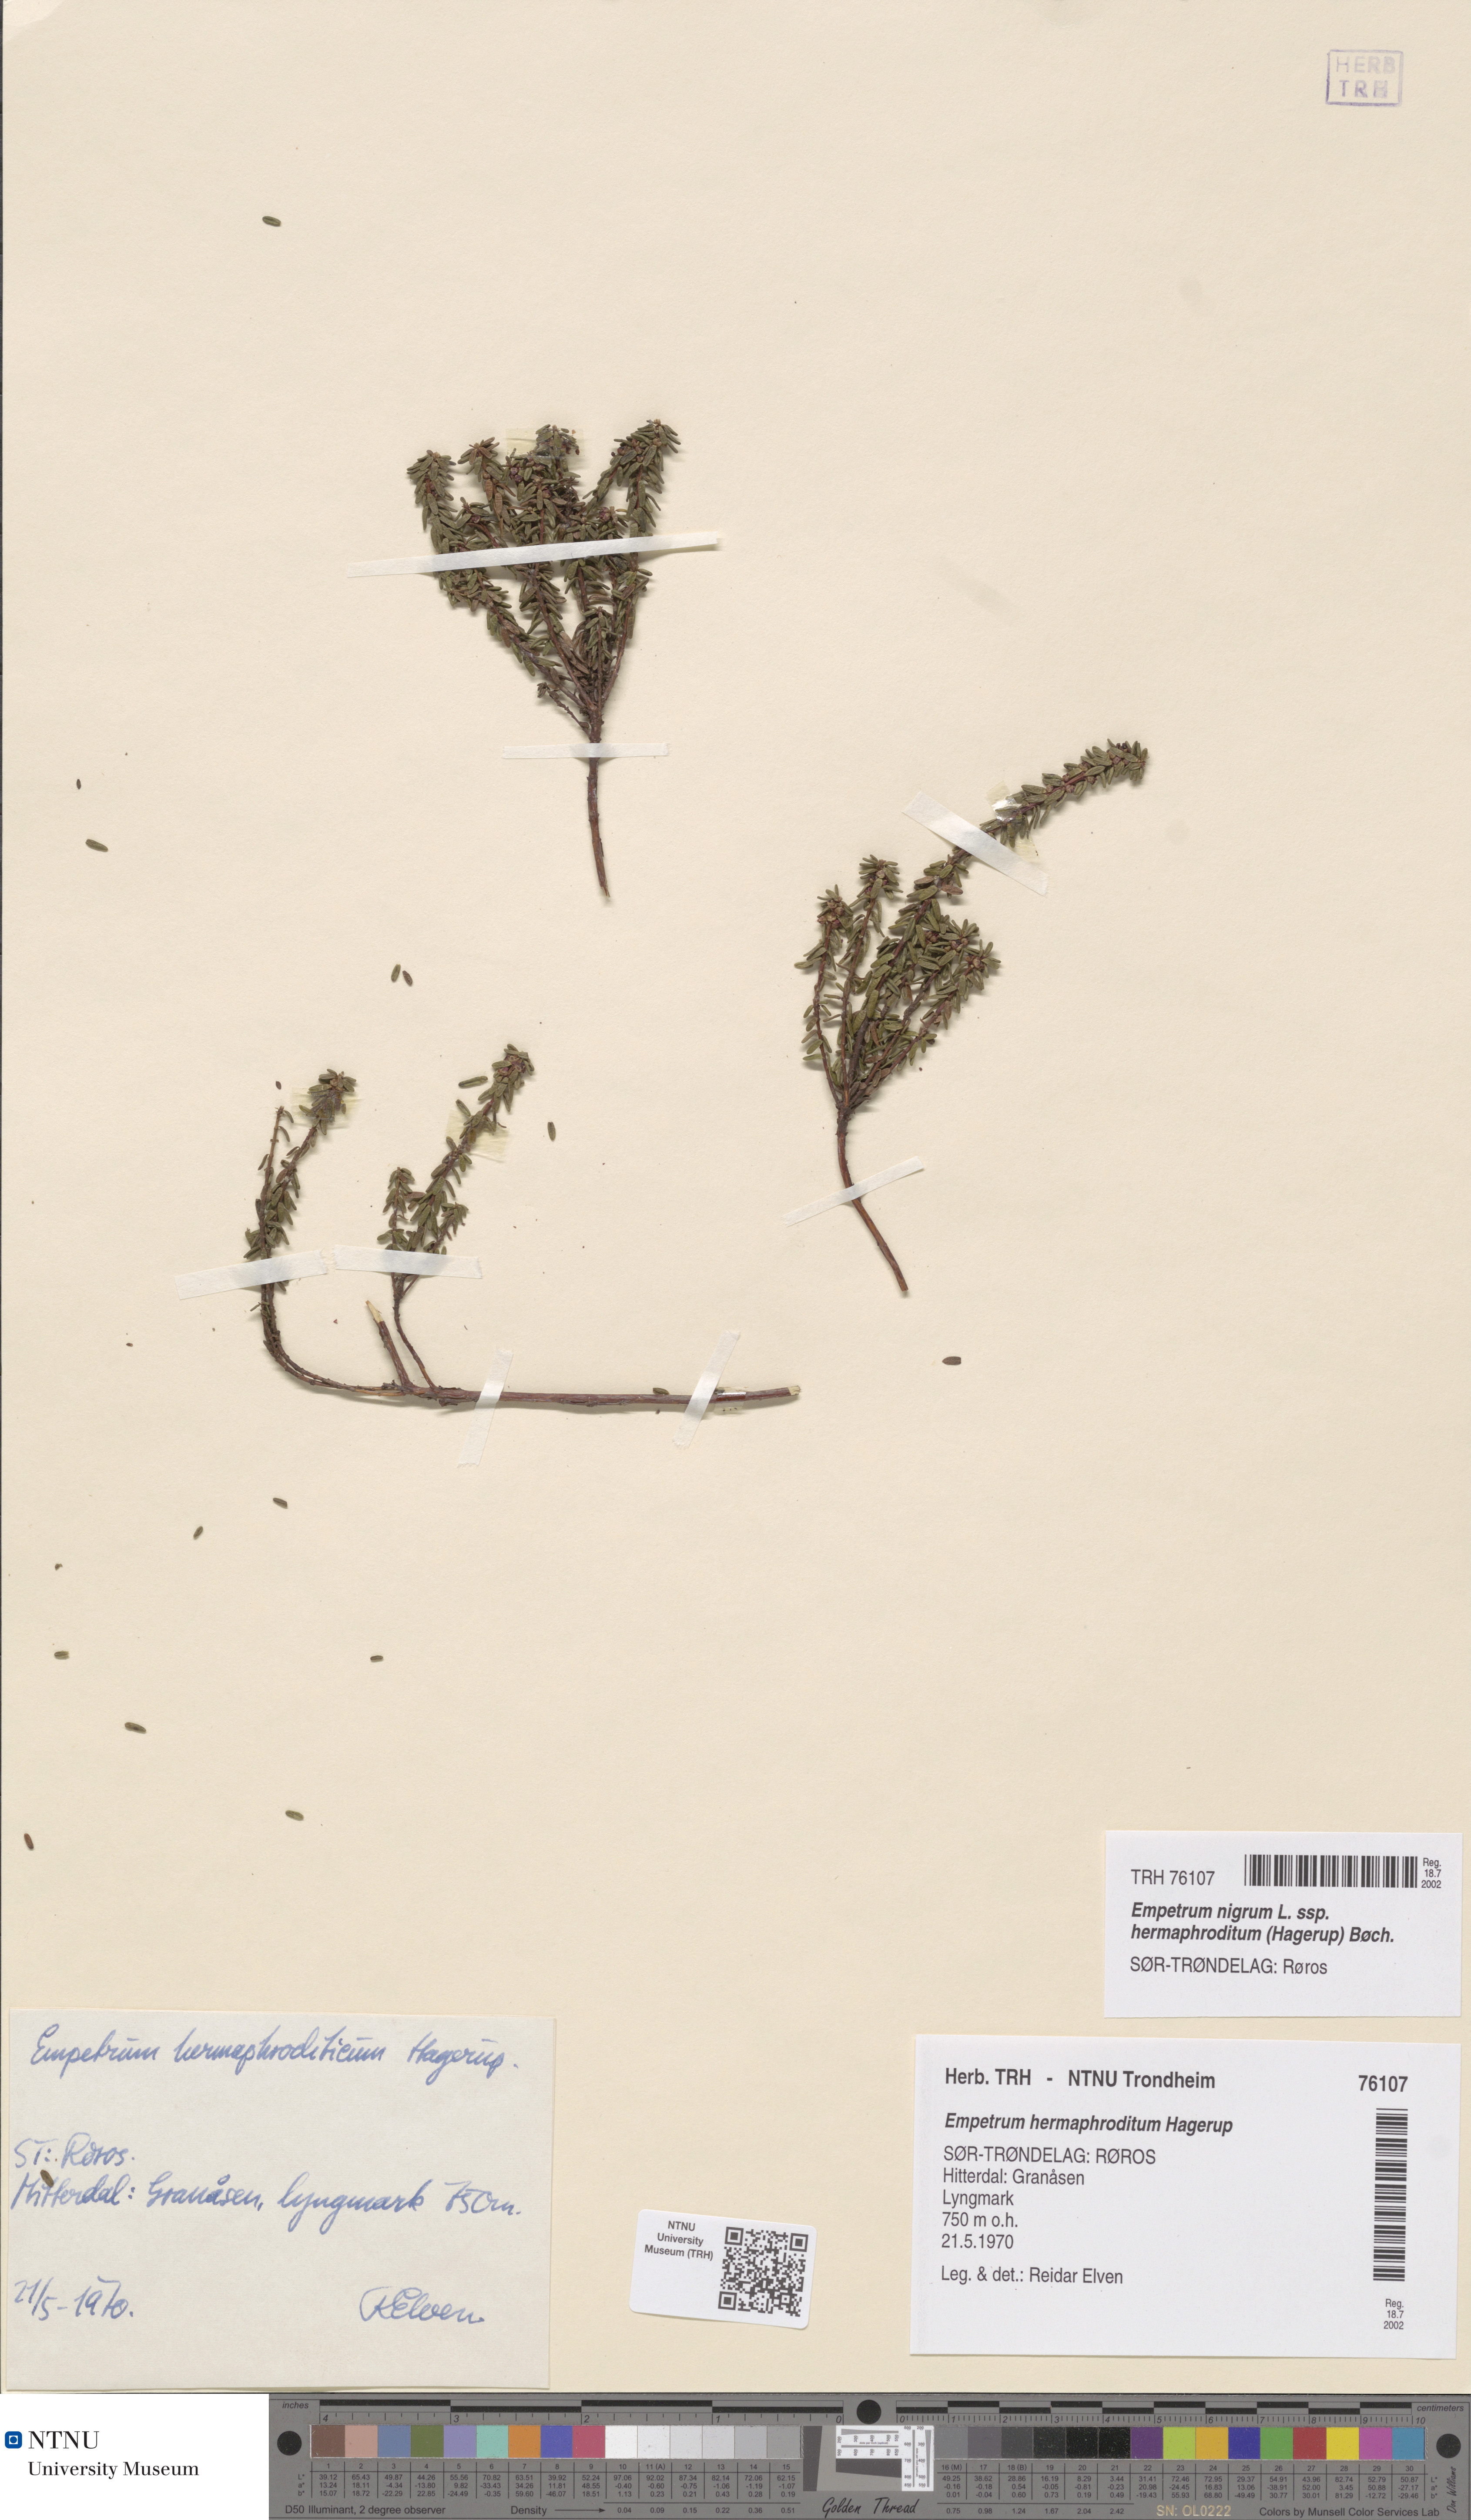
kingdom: Plantae
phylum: Tracheophyta
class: Magnoliopsida
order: Ericales
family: Ericaceae
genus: Empetrum
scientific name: Empetrum hermaphroditum
